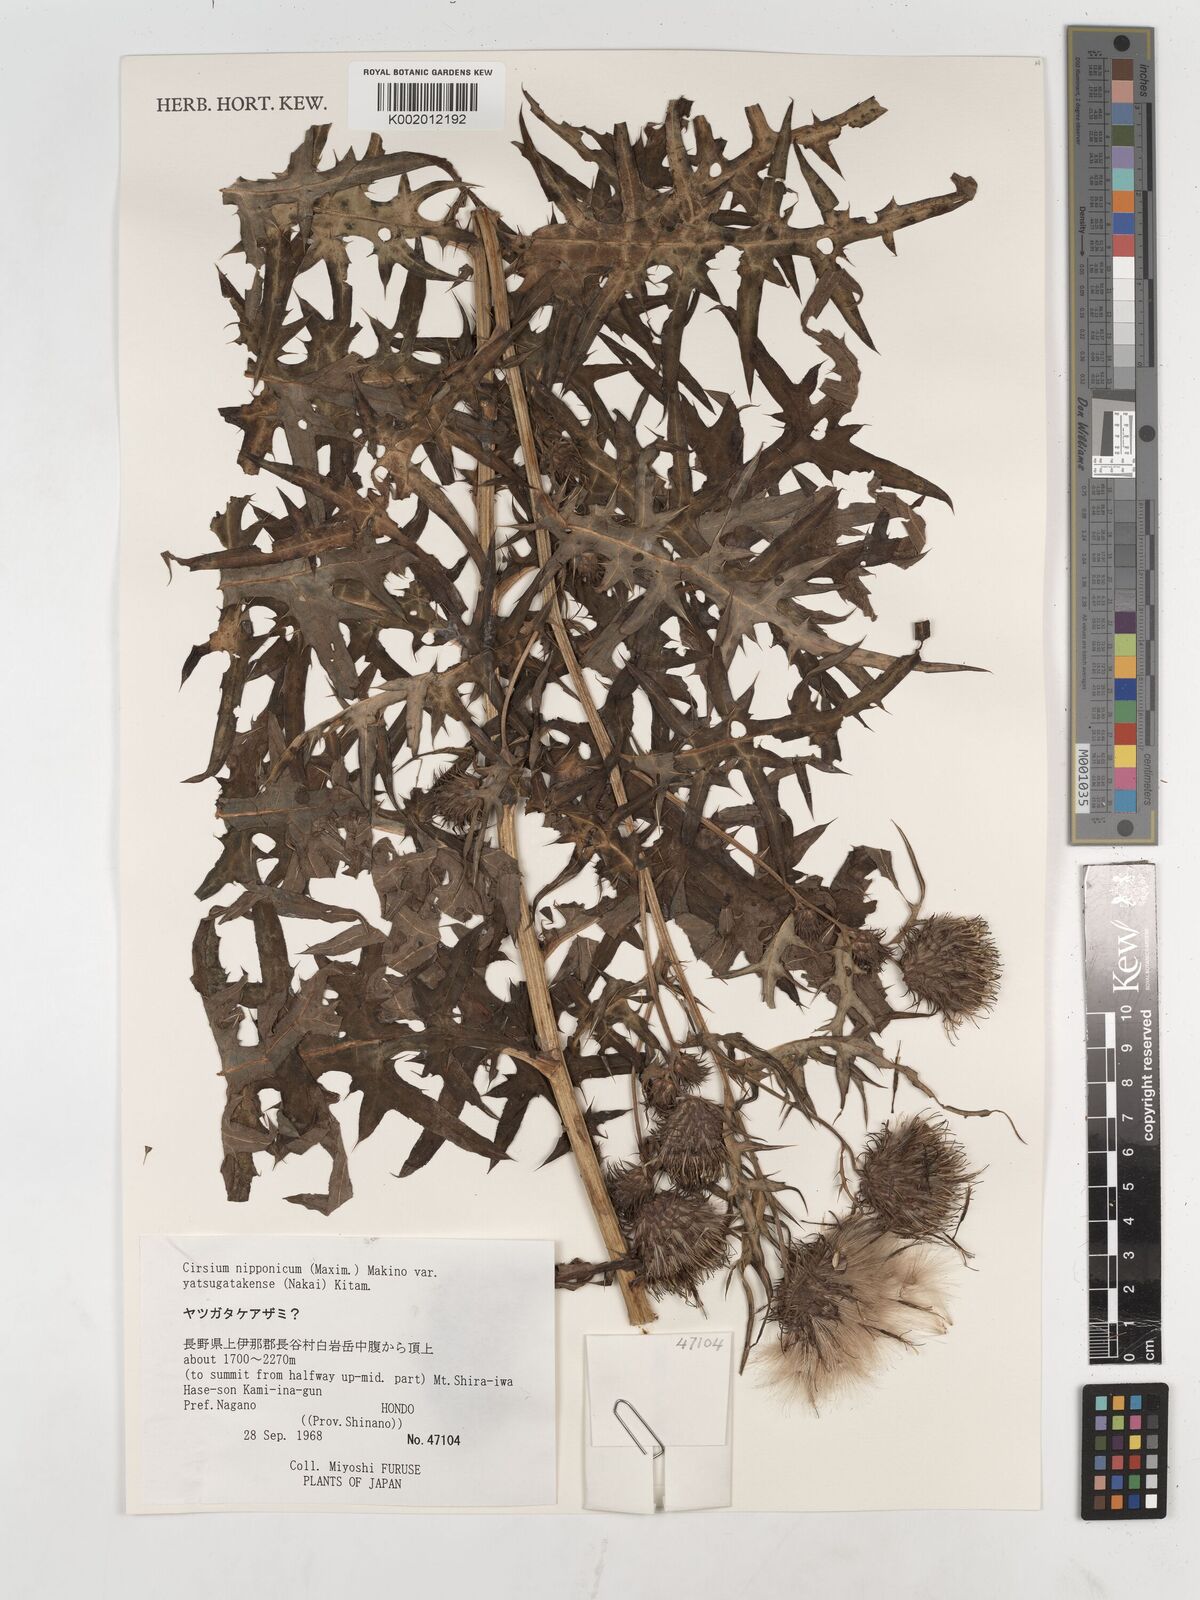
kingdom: Plantae
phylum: Tracheophyta
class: Magnoliopsida
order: Asterales
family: Asteraceae
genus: Cirsium
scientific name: Cirsium nipponicum
